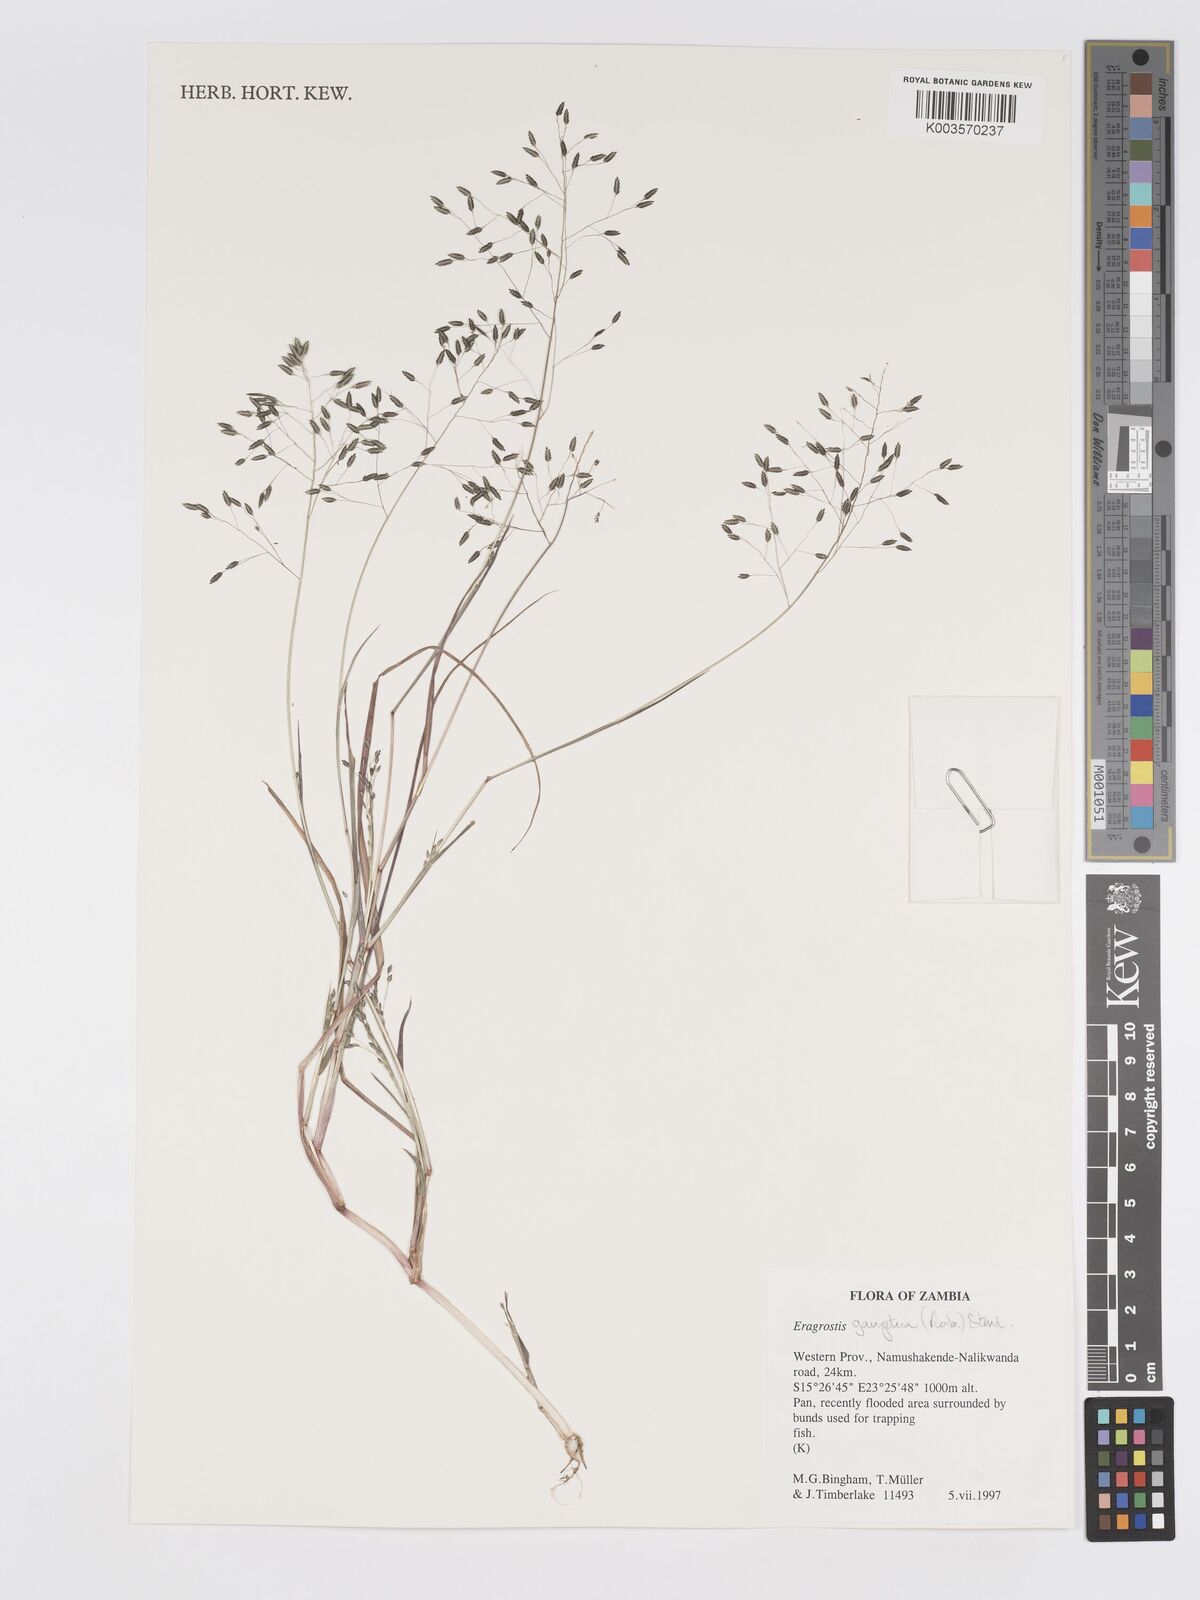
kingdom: Plantae
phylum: Tracheophyta
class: Liliopsida
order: Poales
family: Poaceae
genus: Eragrostis
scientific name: Eragrostis gangetica
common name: Slimflower lovegrass
